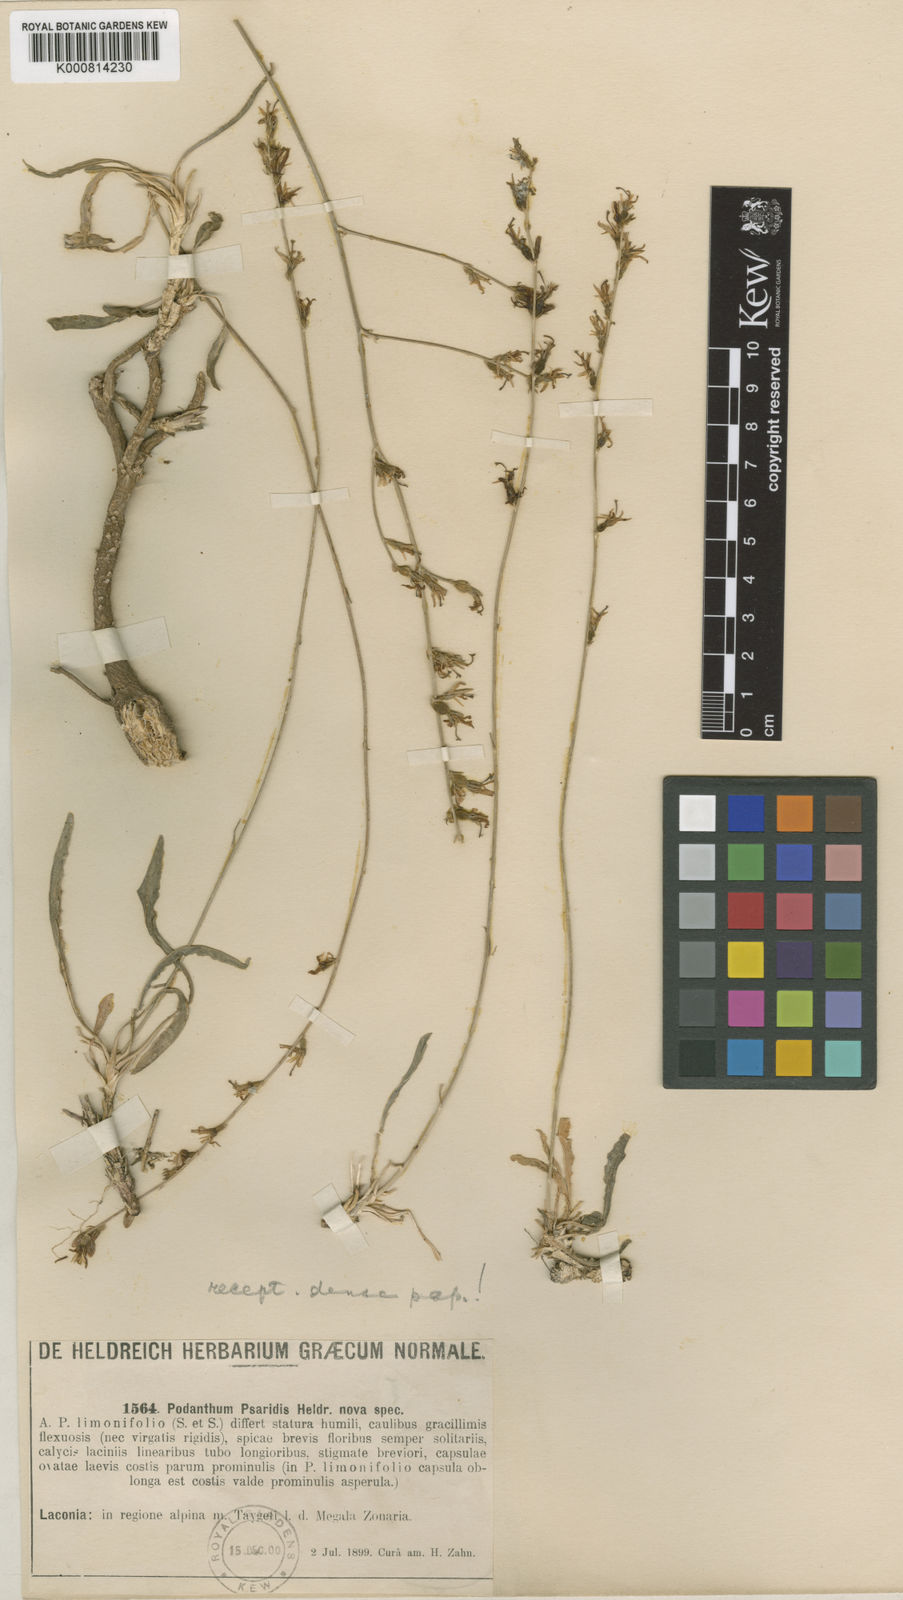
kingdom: Plantae
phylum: Tracheophyta
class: Magnoliopsida
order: Asterales
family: Campanulaceae
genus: Asyneuma
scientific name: Asyneuma limonifolium
